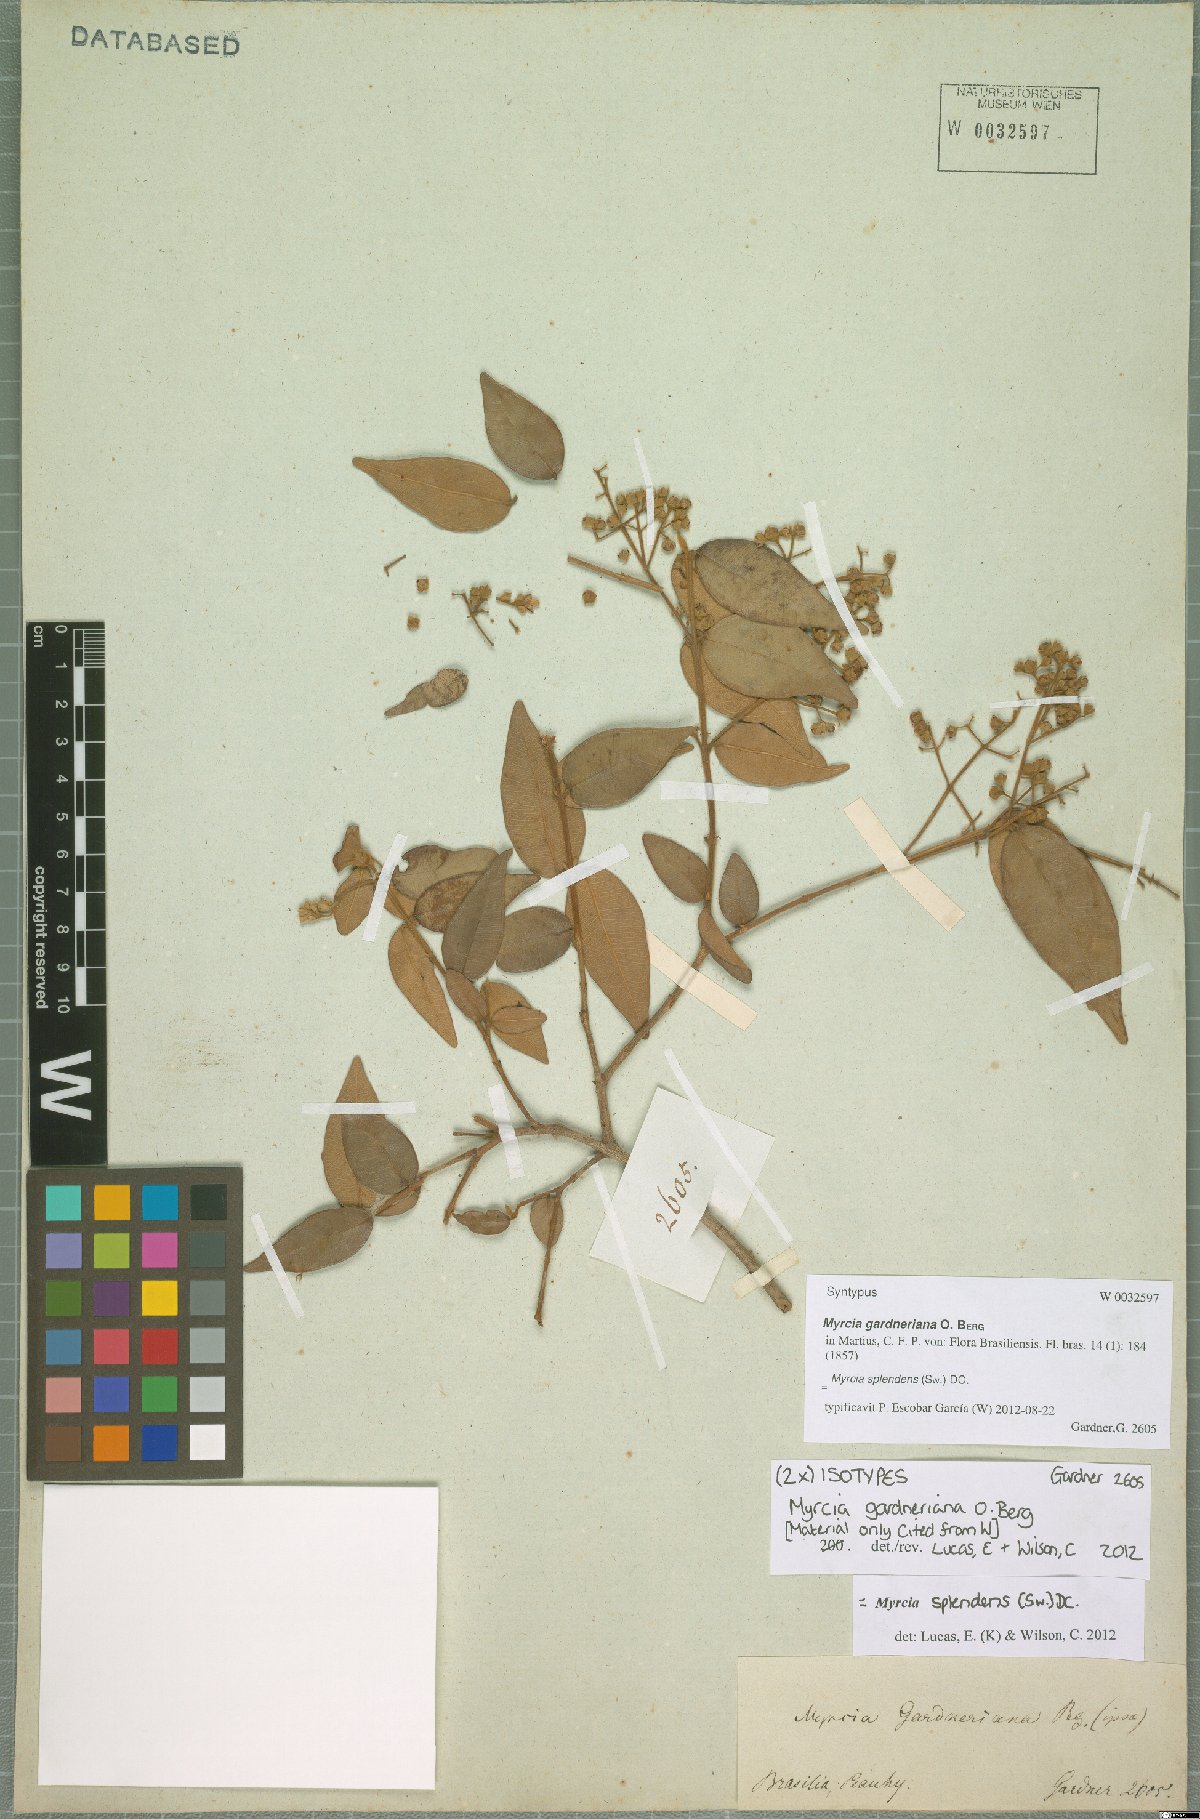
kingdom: Plantae
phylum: Tracheophyta
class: Magnoliopsida
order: Myrtales
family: Myrtaceae
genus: Myrcia
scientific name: Myrcia splendens
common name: Surinam cherry
